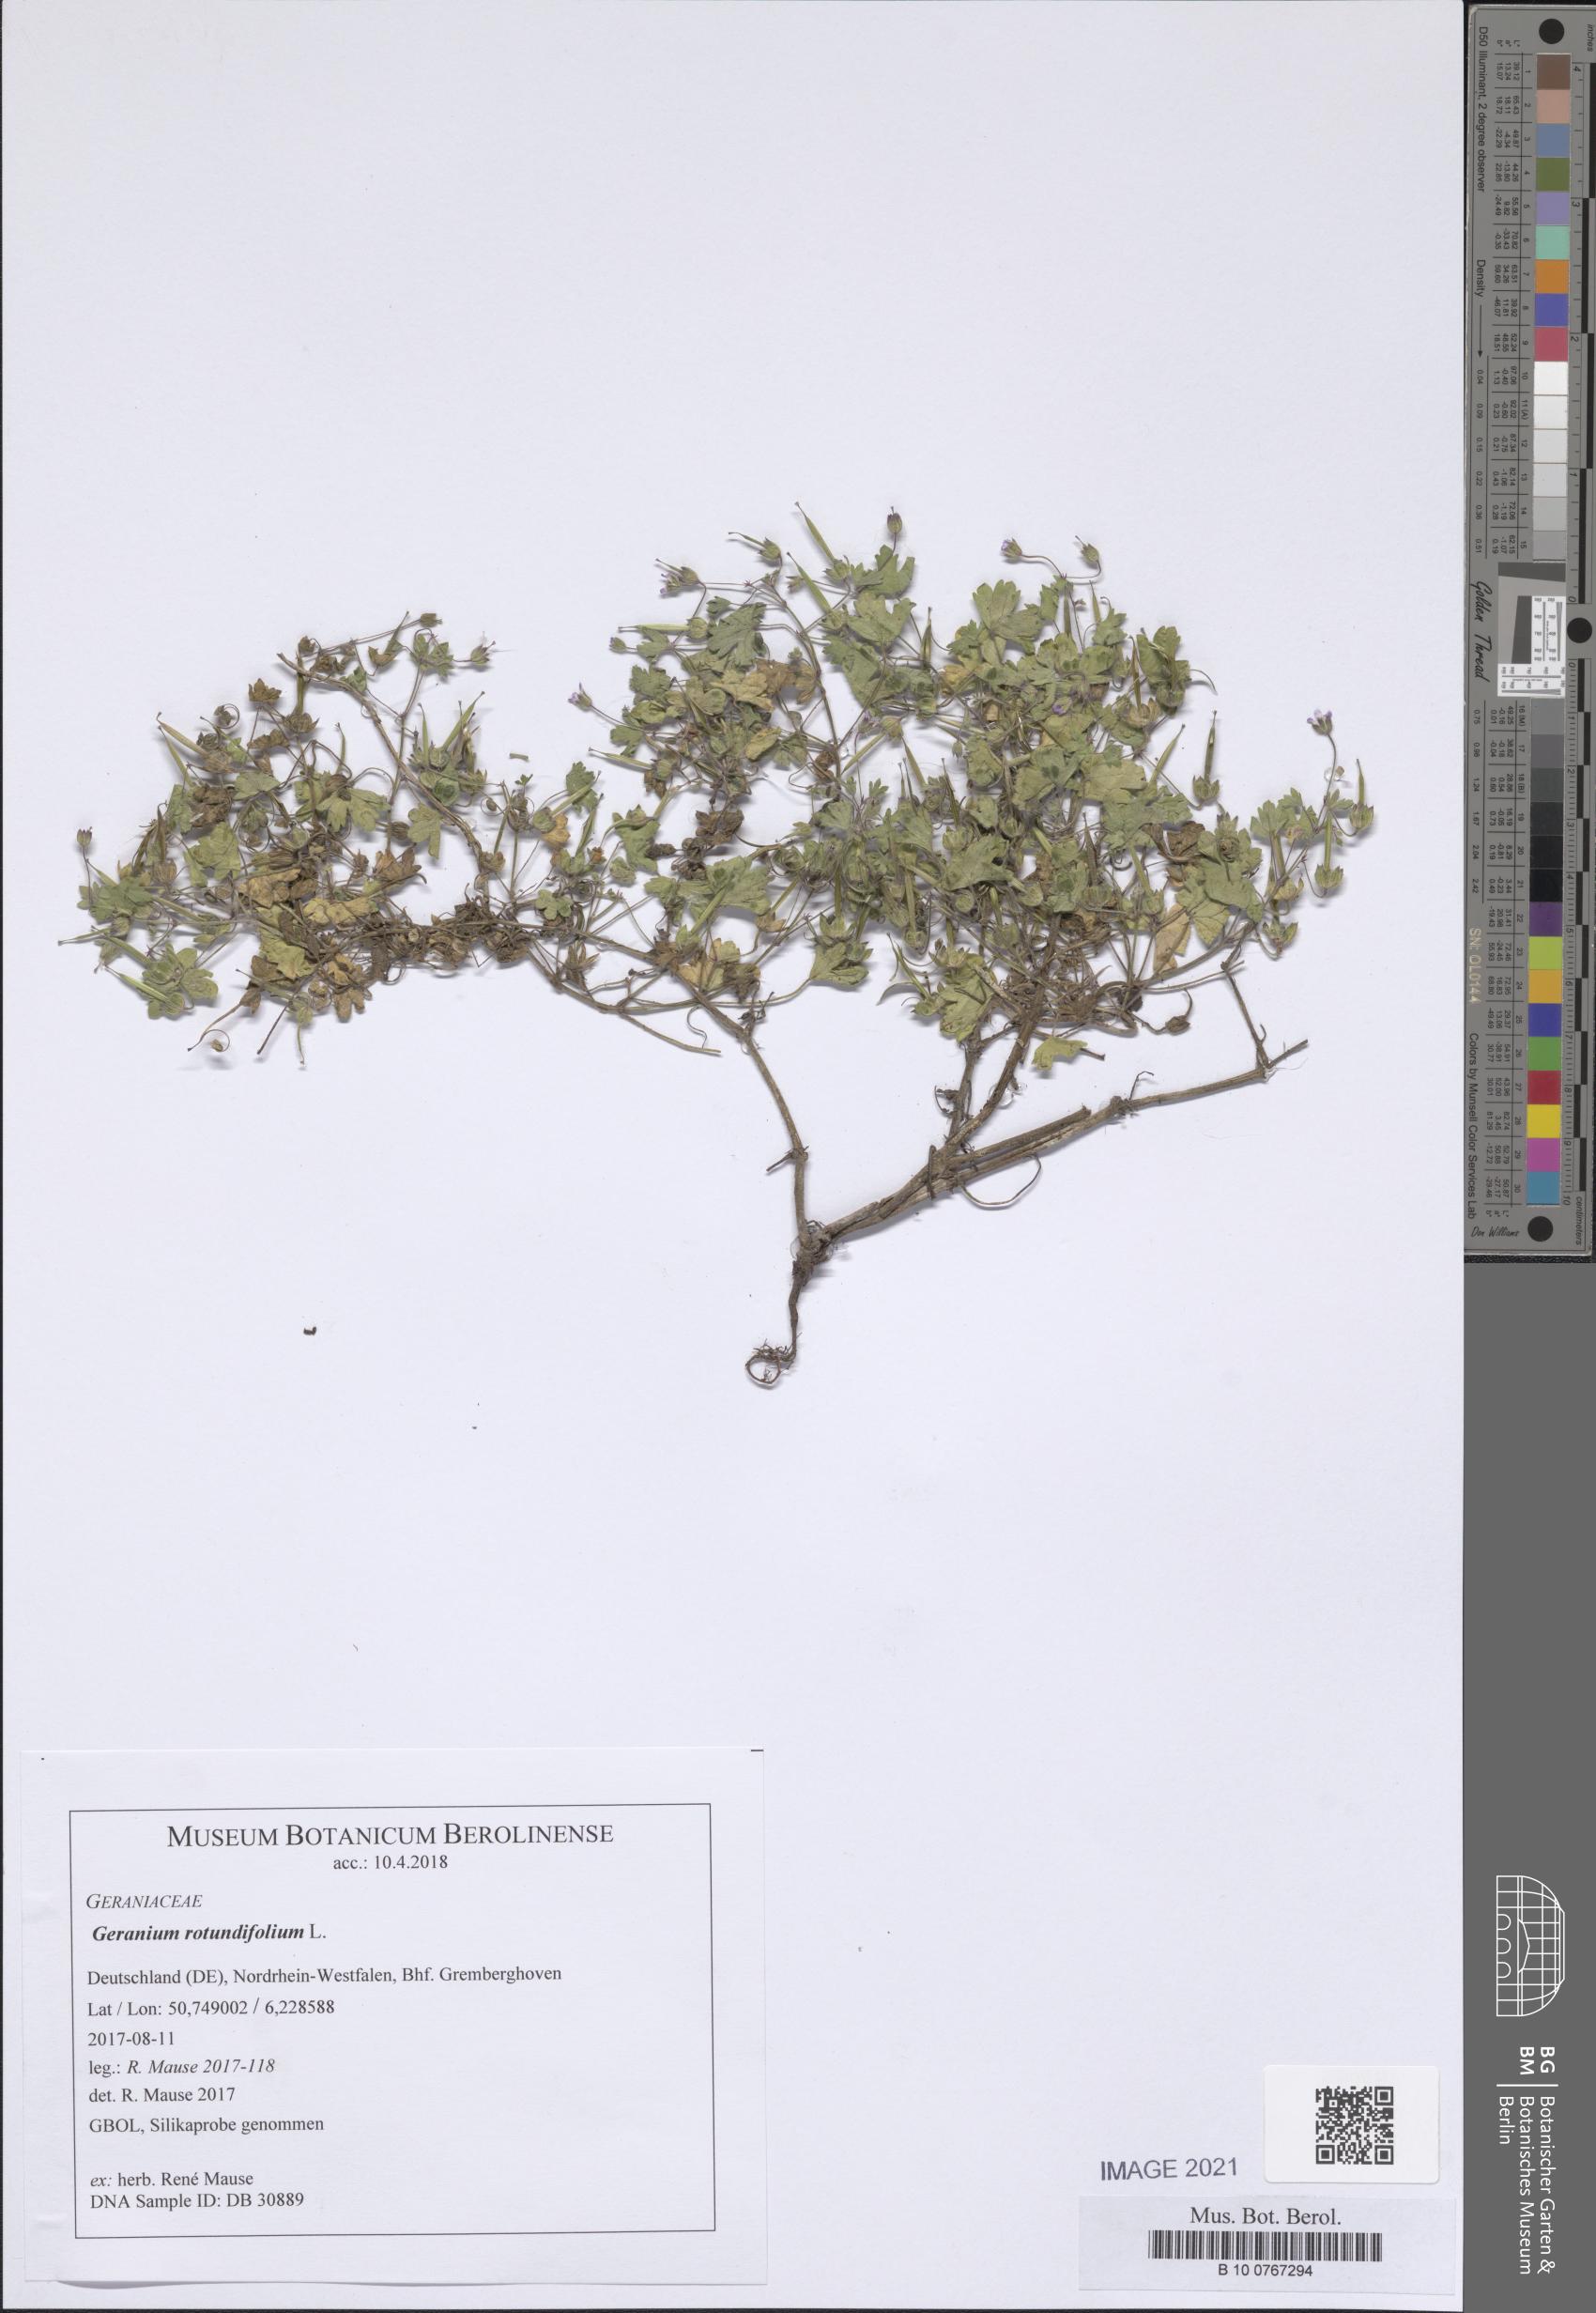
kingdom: Plantae
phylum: Tracheophyta
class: Magnoliopsida
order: Geraniales
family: Geraniaceae
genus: Geranium
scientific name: Geranium rotundifolium
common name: Round-leaved crane's-bill
